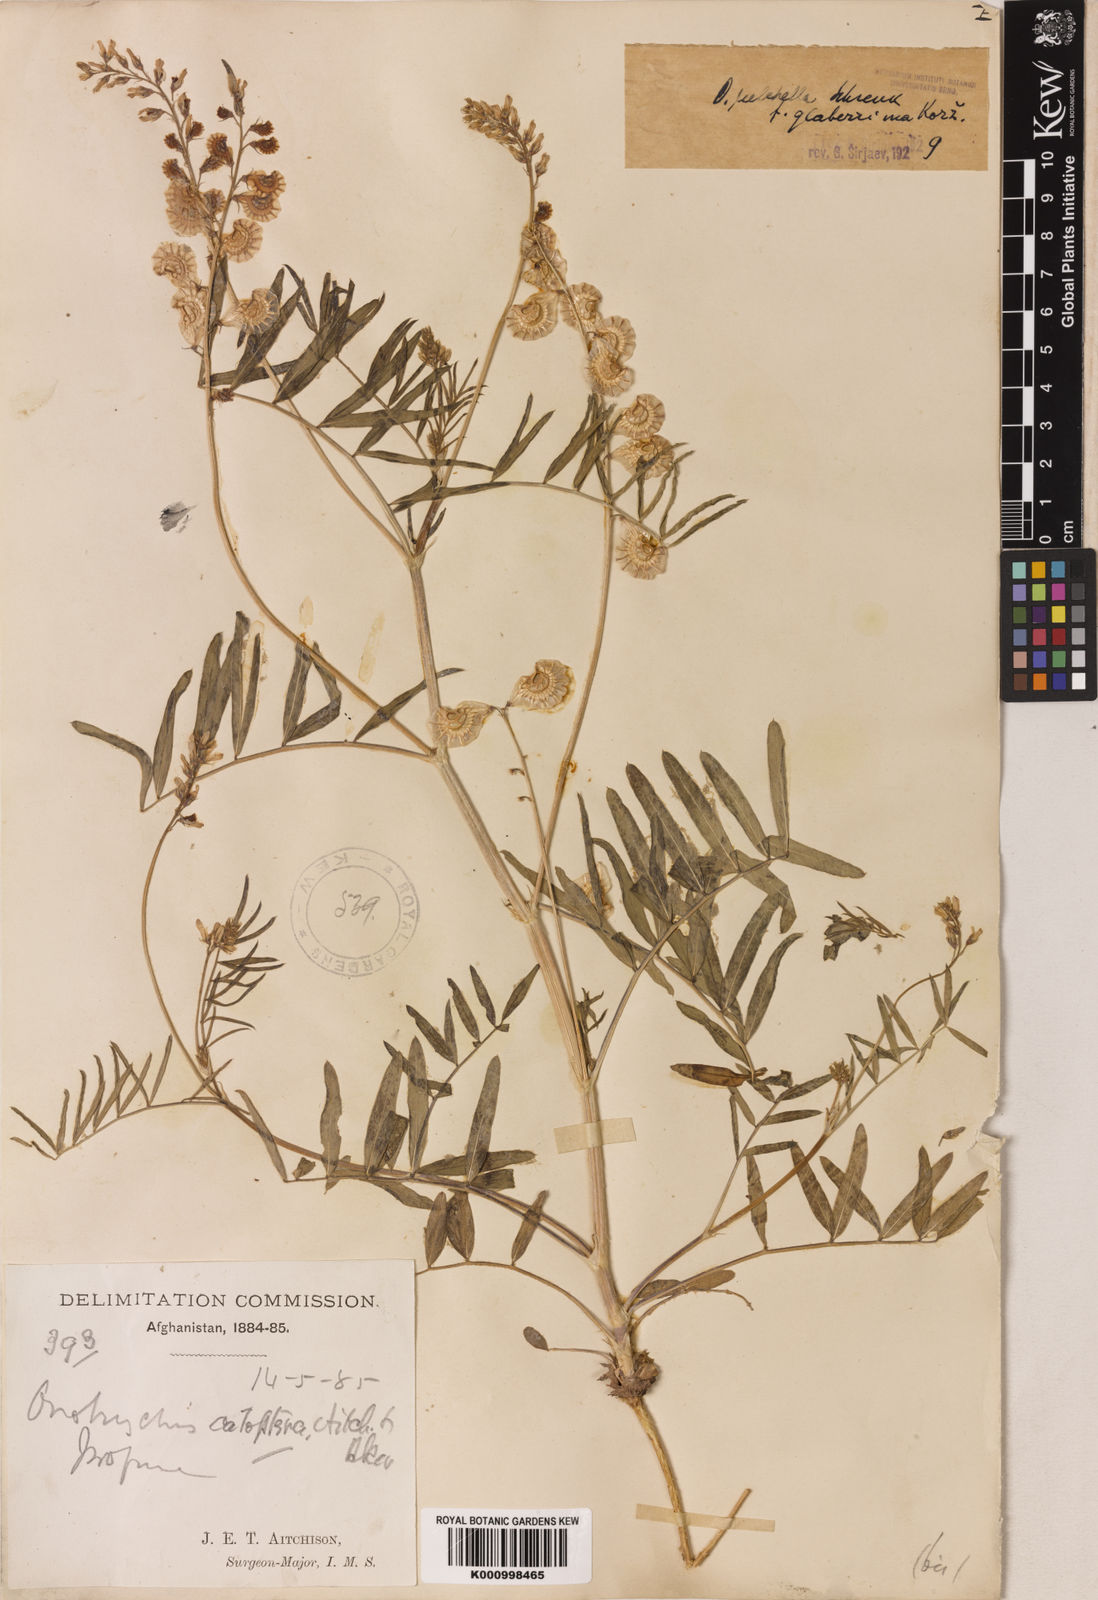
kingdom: Plantae
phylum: Tracheophyta
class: Magnoliopsida
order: Fabales
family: Fabaceae
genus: Onobrychis
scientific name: Onobrychis pulchella
